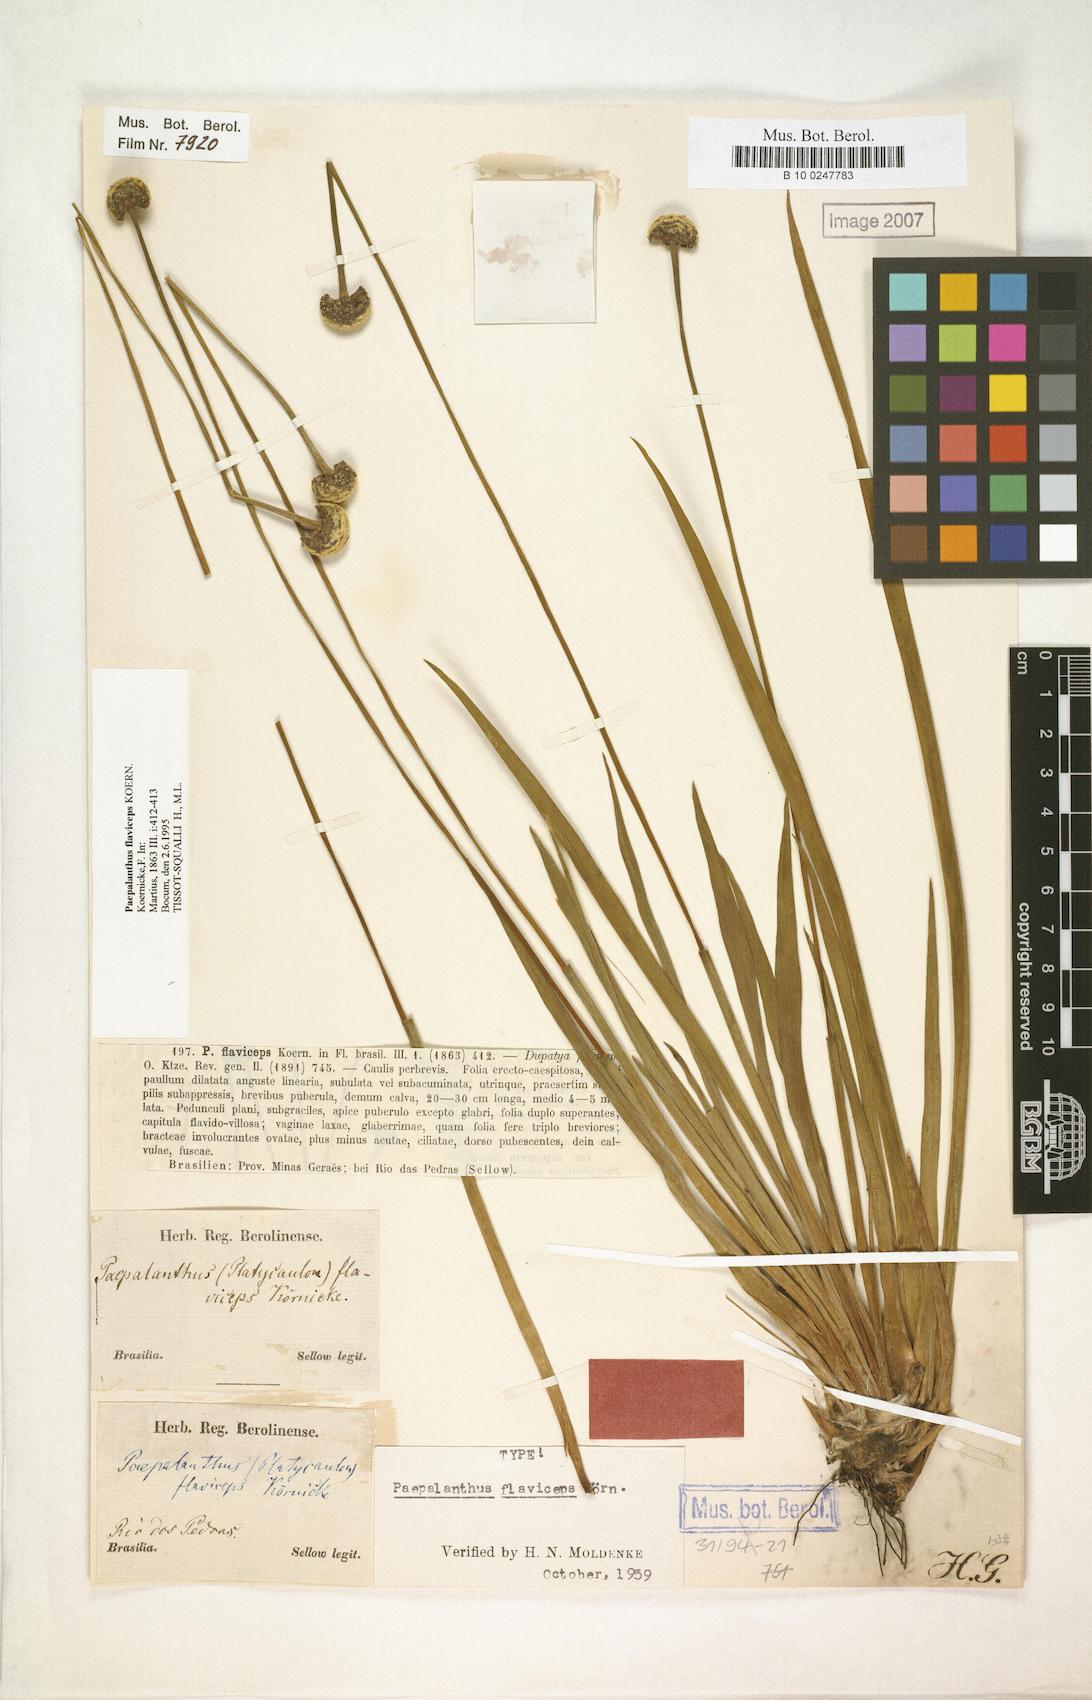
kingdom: Plantae
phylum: Tracheophyta
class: Liliopsida
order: Poales
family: Eriocaulaceae
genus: Paepalanthus
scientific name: Paepalanthus flaviceps
